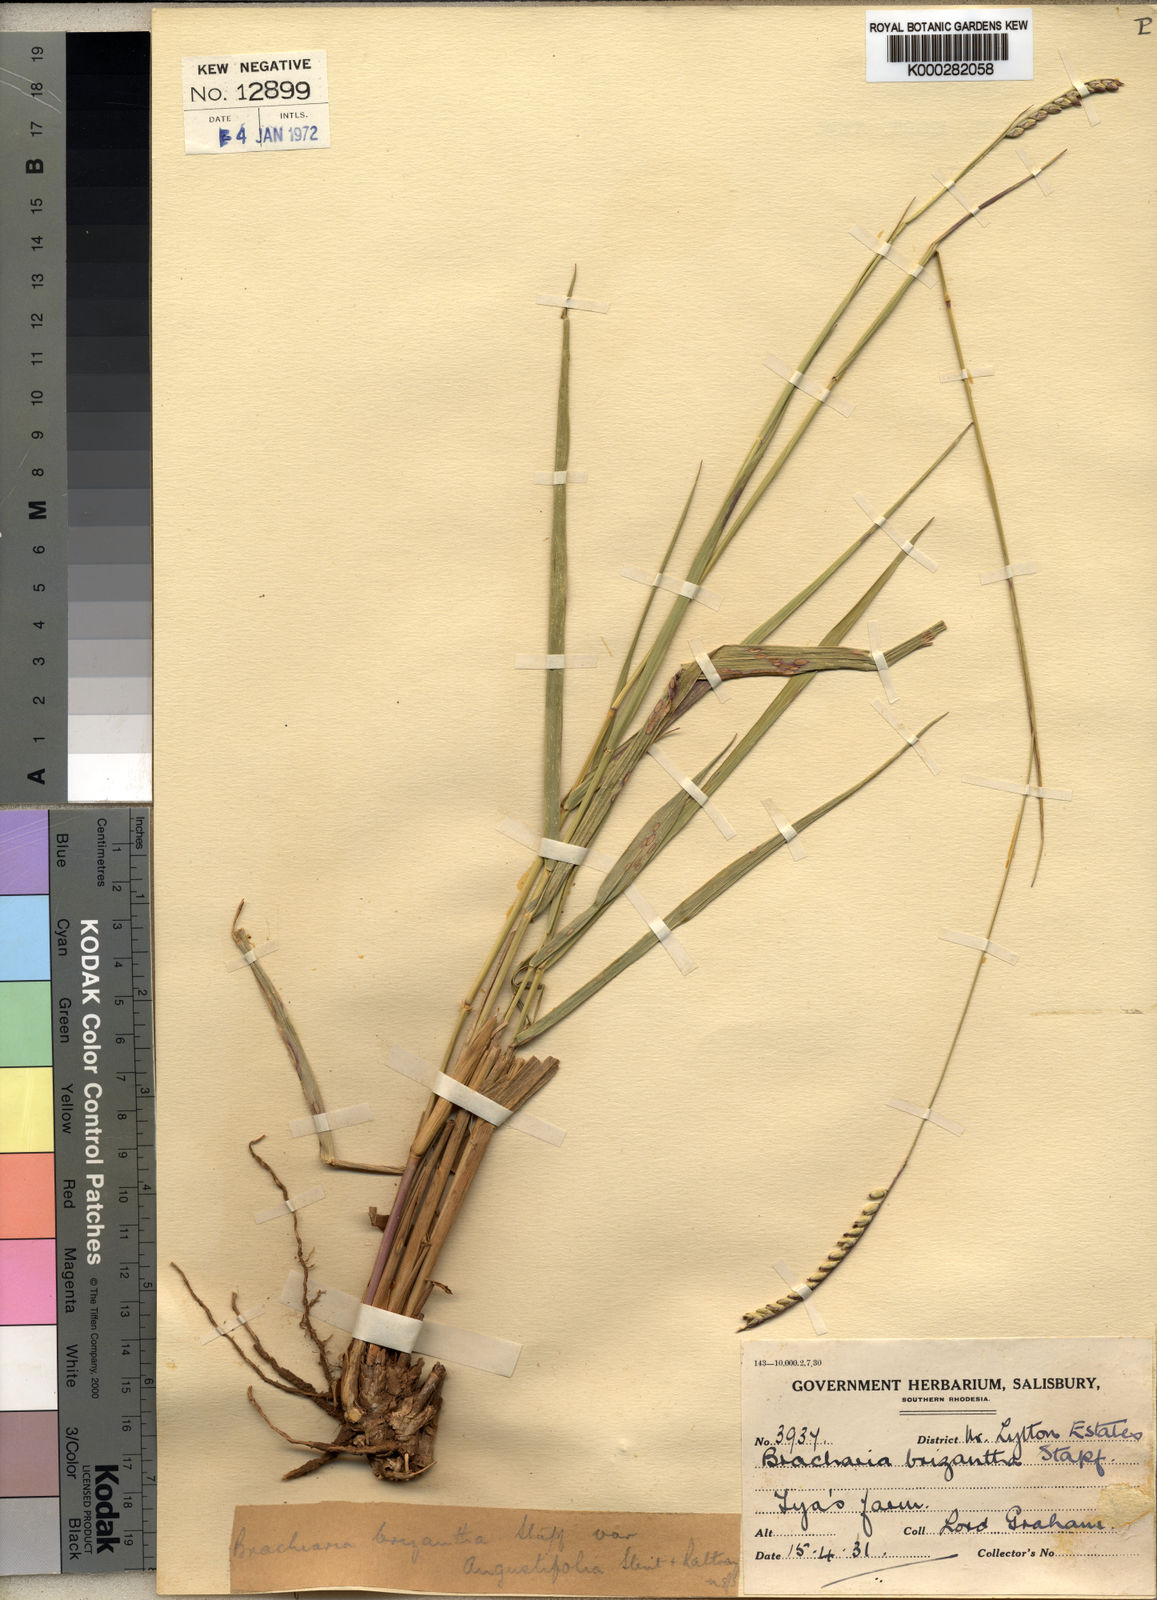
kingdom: Plantae
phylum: Tracheophyta
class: Liliopsida
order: Poales
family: Poaceae
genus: Urochloa
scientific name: Urochloa brizantha
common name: Palisade signalgrass
